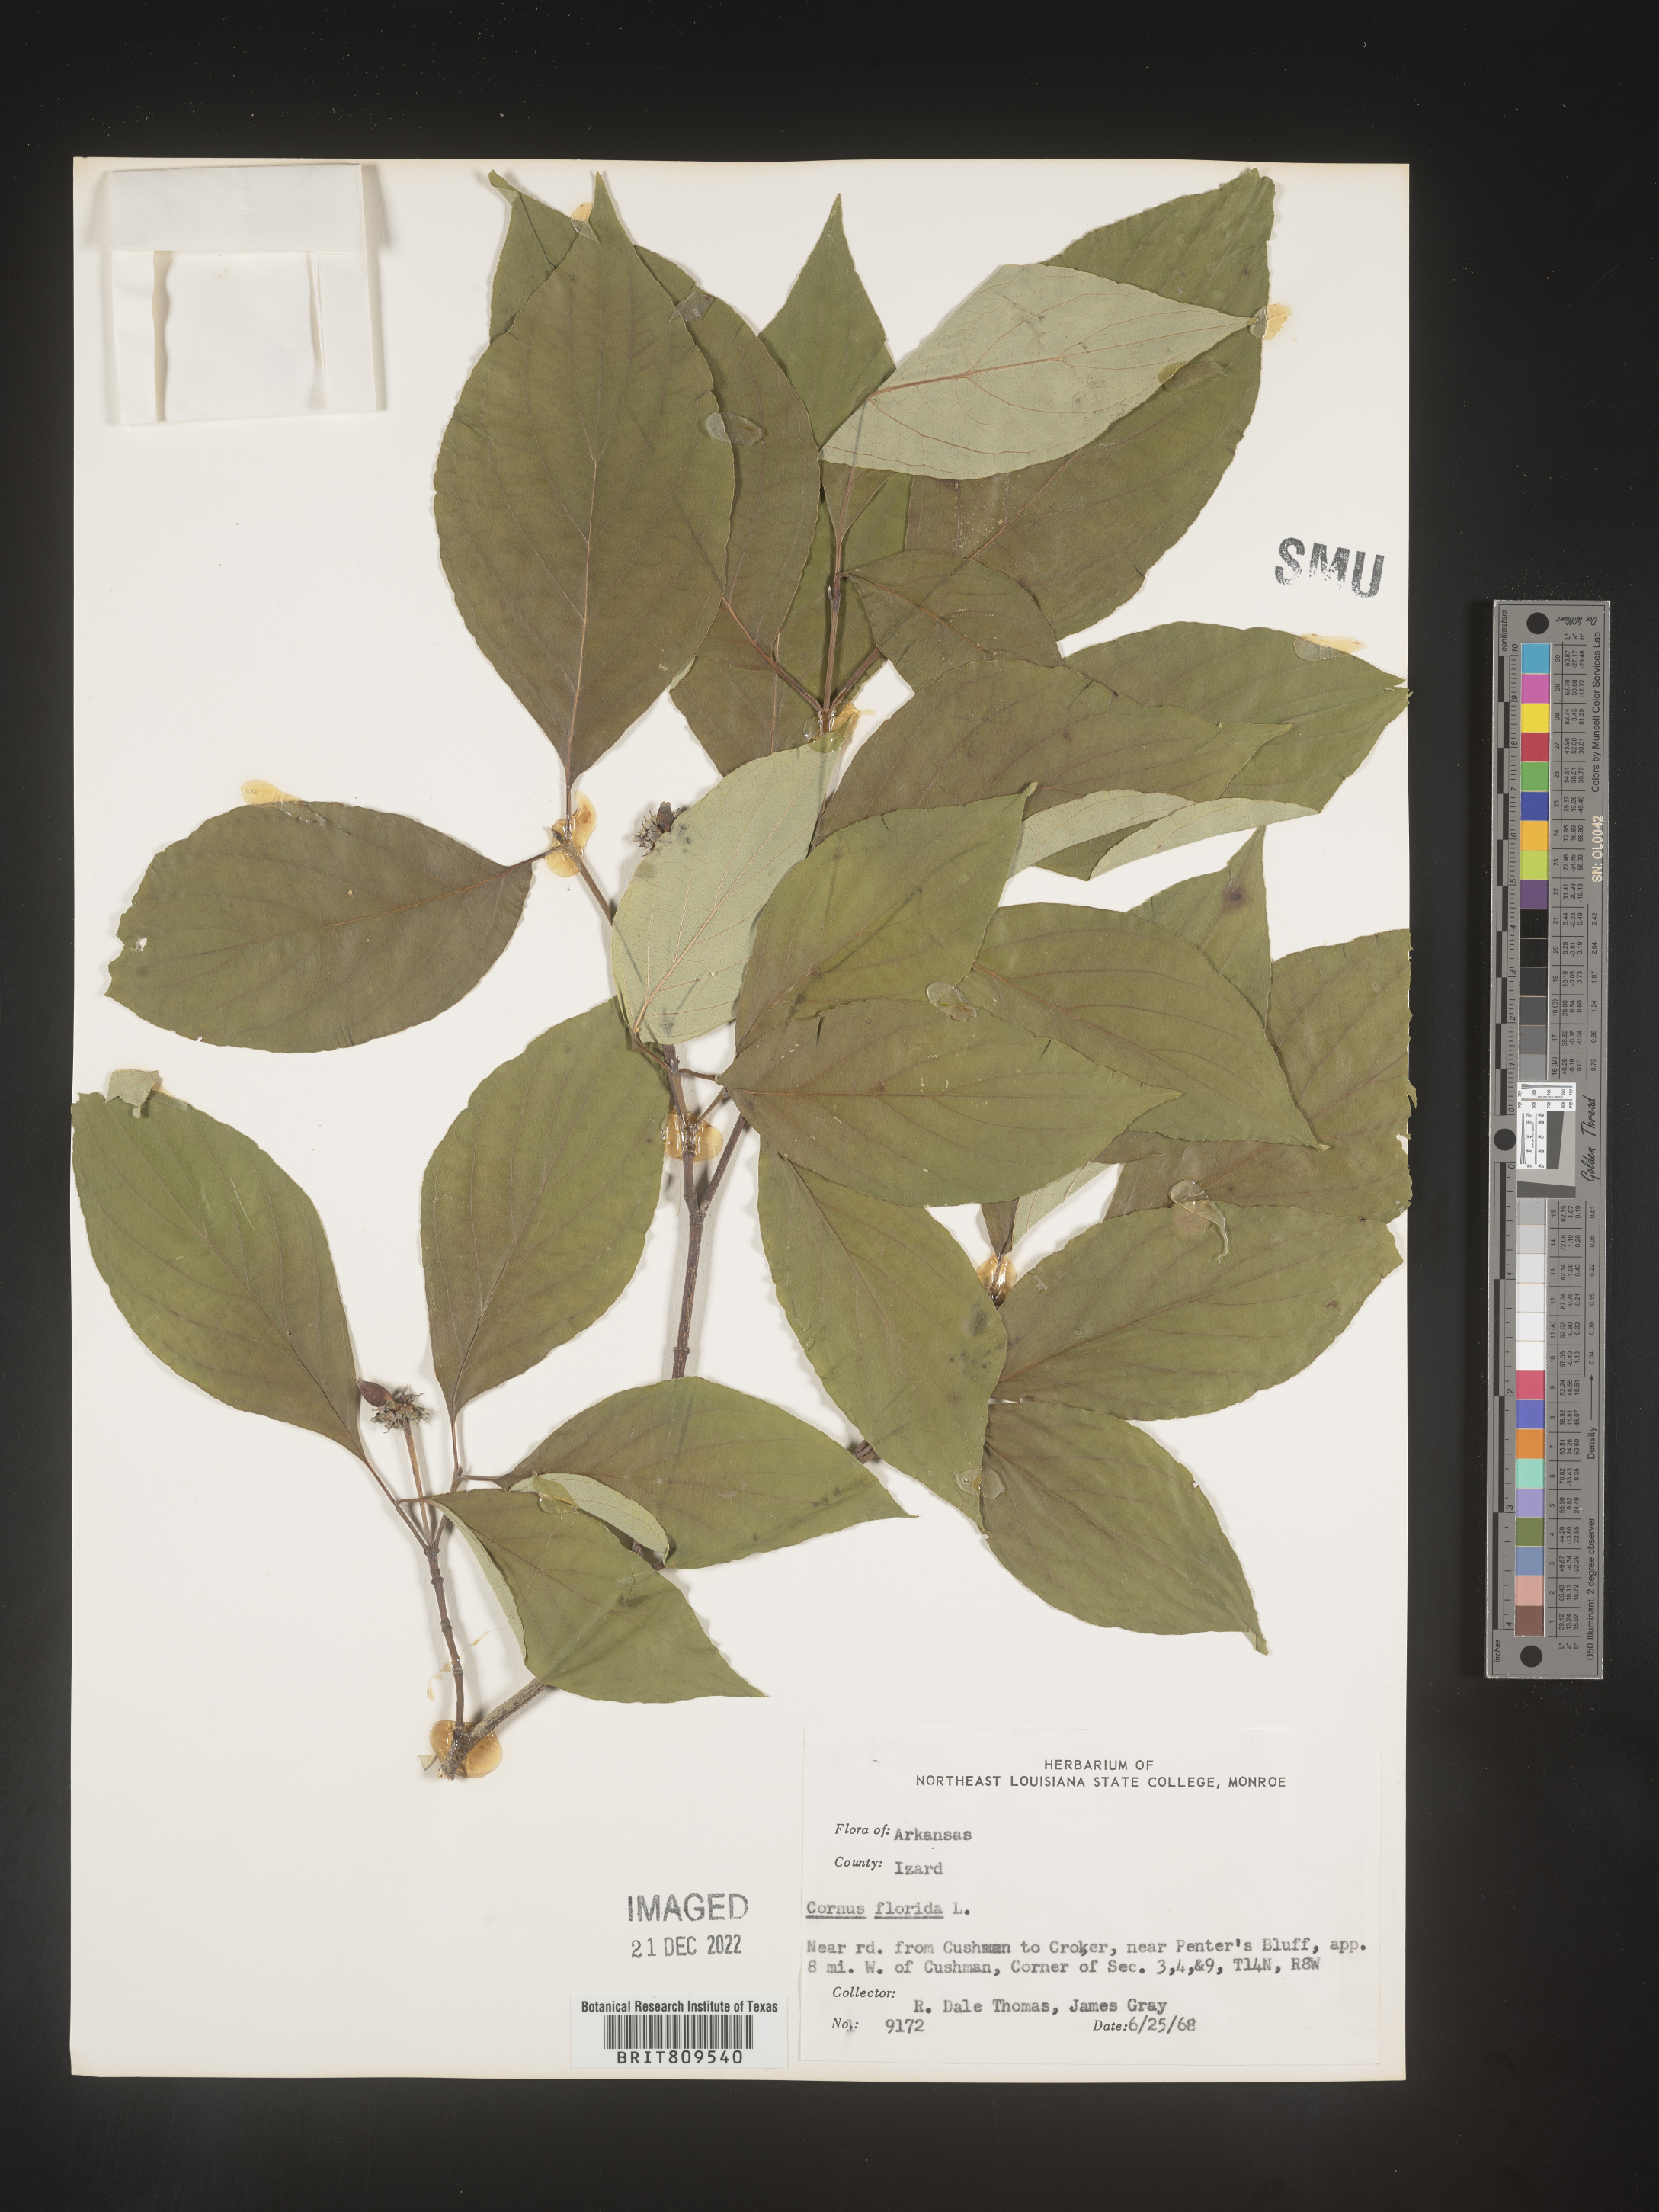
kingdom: Plantae
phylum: Tracheophyta
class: Magnoliopsida
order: Cornales
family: Cornaceae
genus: Cornus
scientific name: Cornus florida
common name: Flowering dogwood
